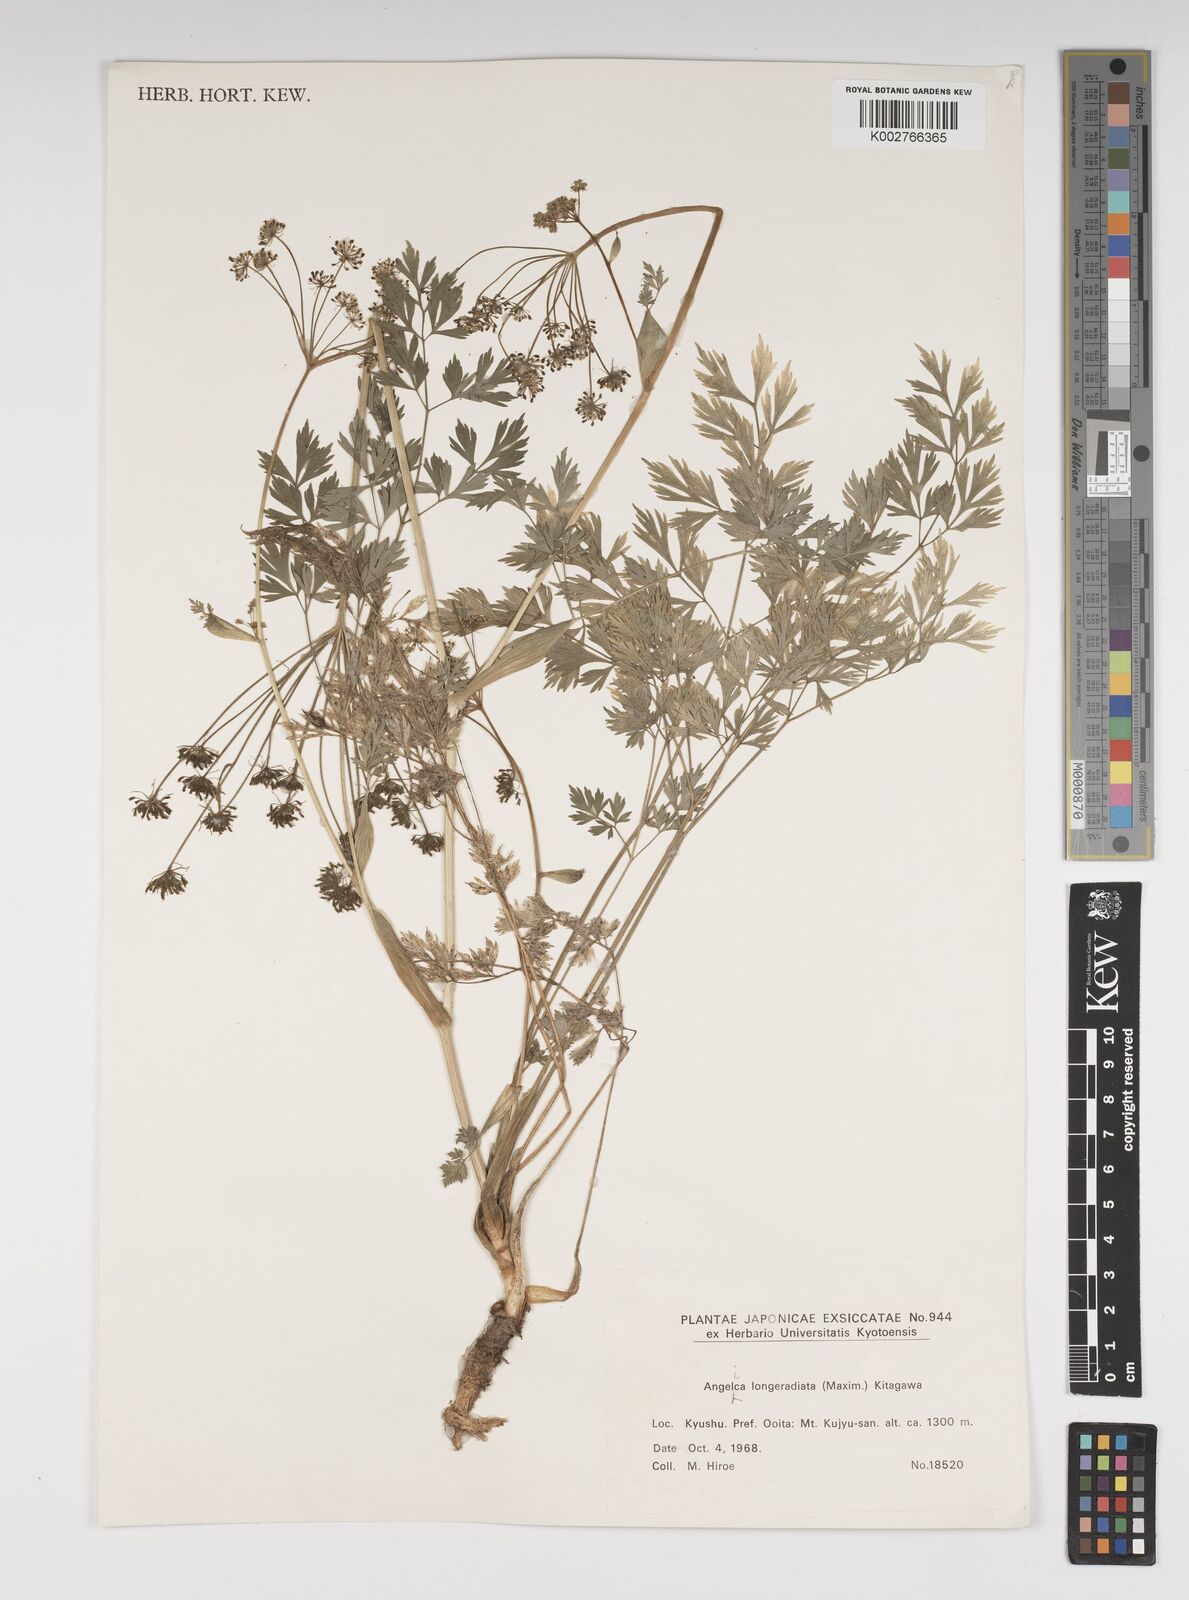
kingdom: Plantae
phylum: Tracheophyta
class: Magnoliopsida
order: Apiales
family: Apiaceae
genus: Angelica
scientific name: Angelica longeradiata
